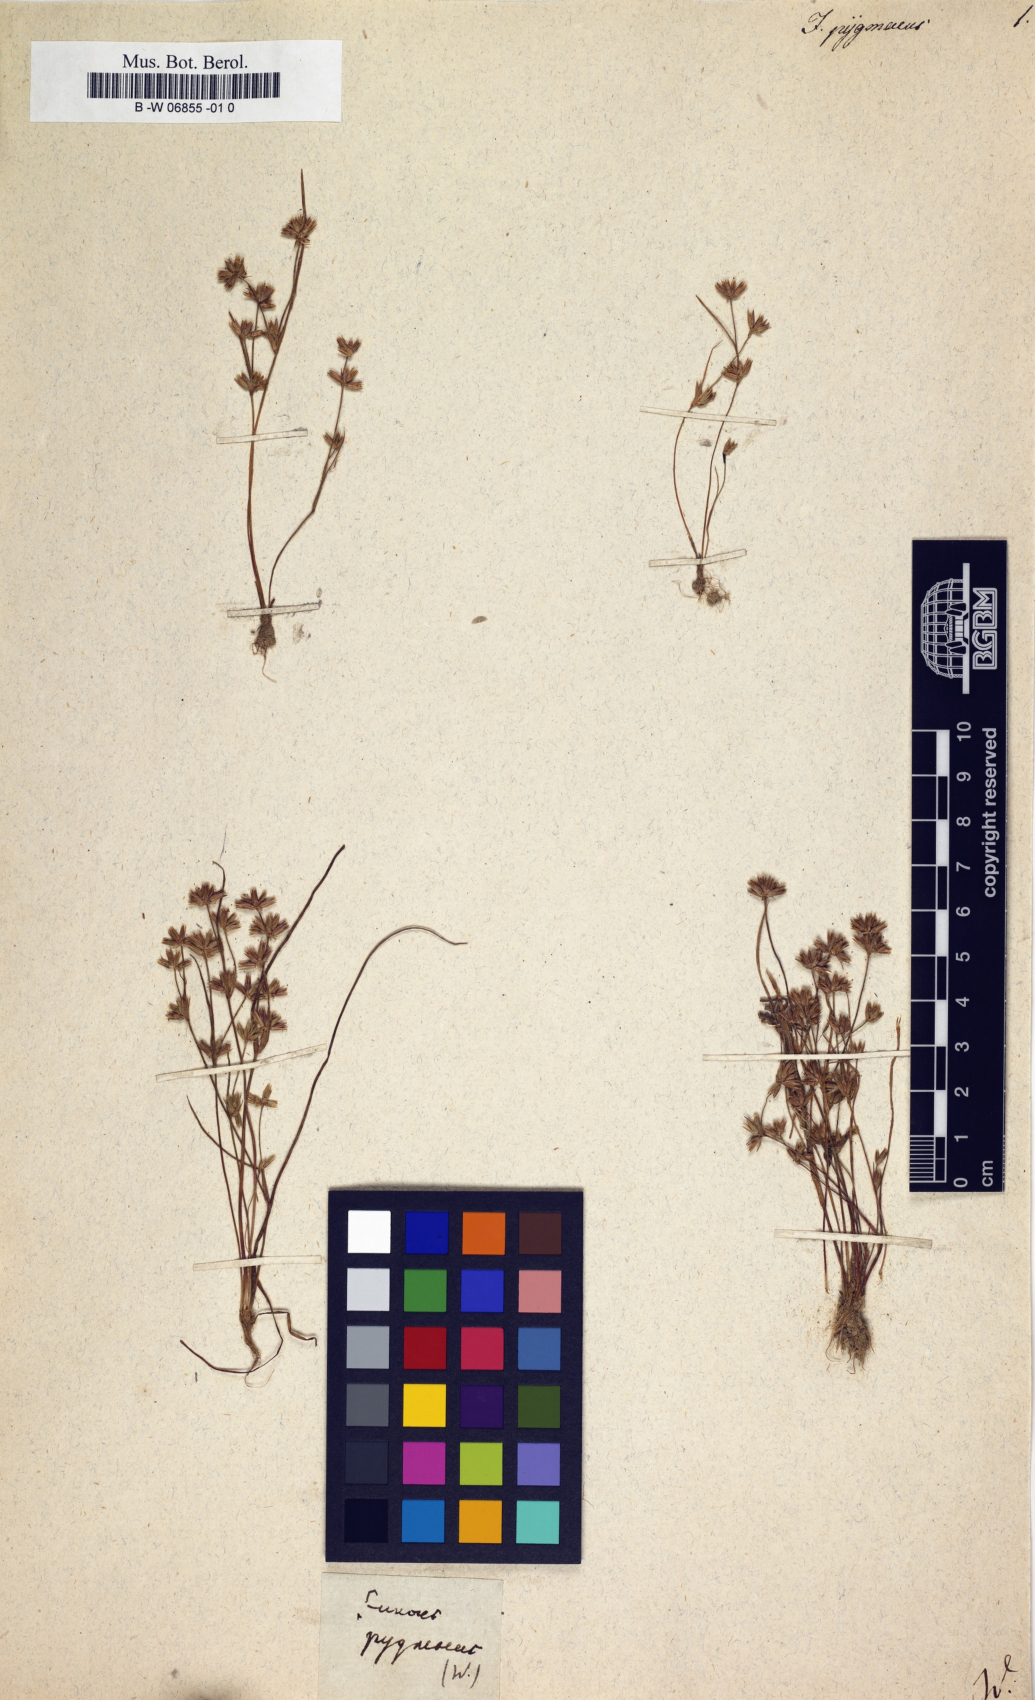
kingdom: Plantae
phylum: Tracheophyta
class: Liliopsida
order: Poales
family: Juncaceae
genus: Juncus
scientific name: Juncus pygmaeus
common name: Pigmy rush
